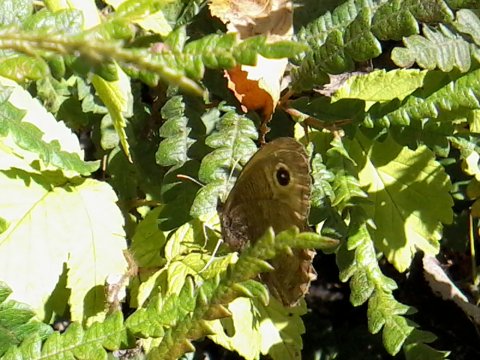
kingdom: Animalia
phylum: Arthropoda
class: Insecta
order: Lepidoptera
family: Nymphalidae
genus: Cercyonis
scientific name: Cercyonis pegala
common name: Common Wood-Nymph
